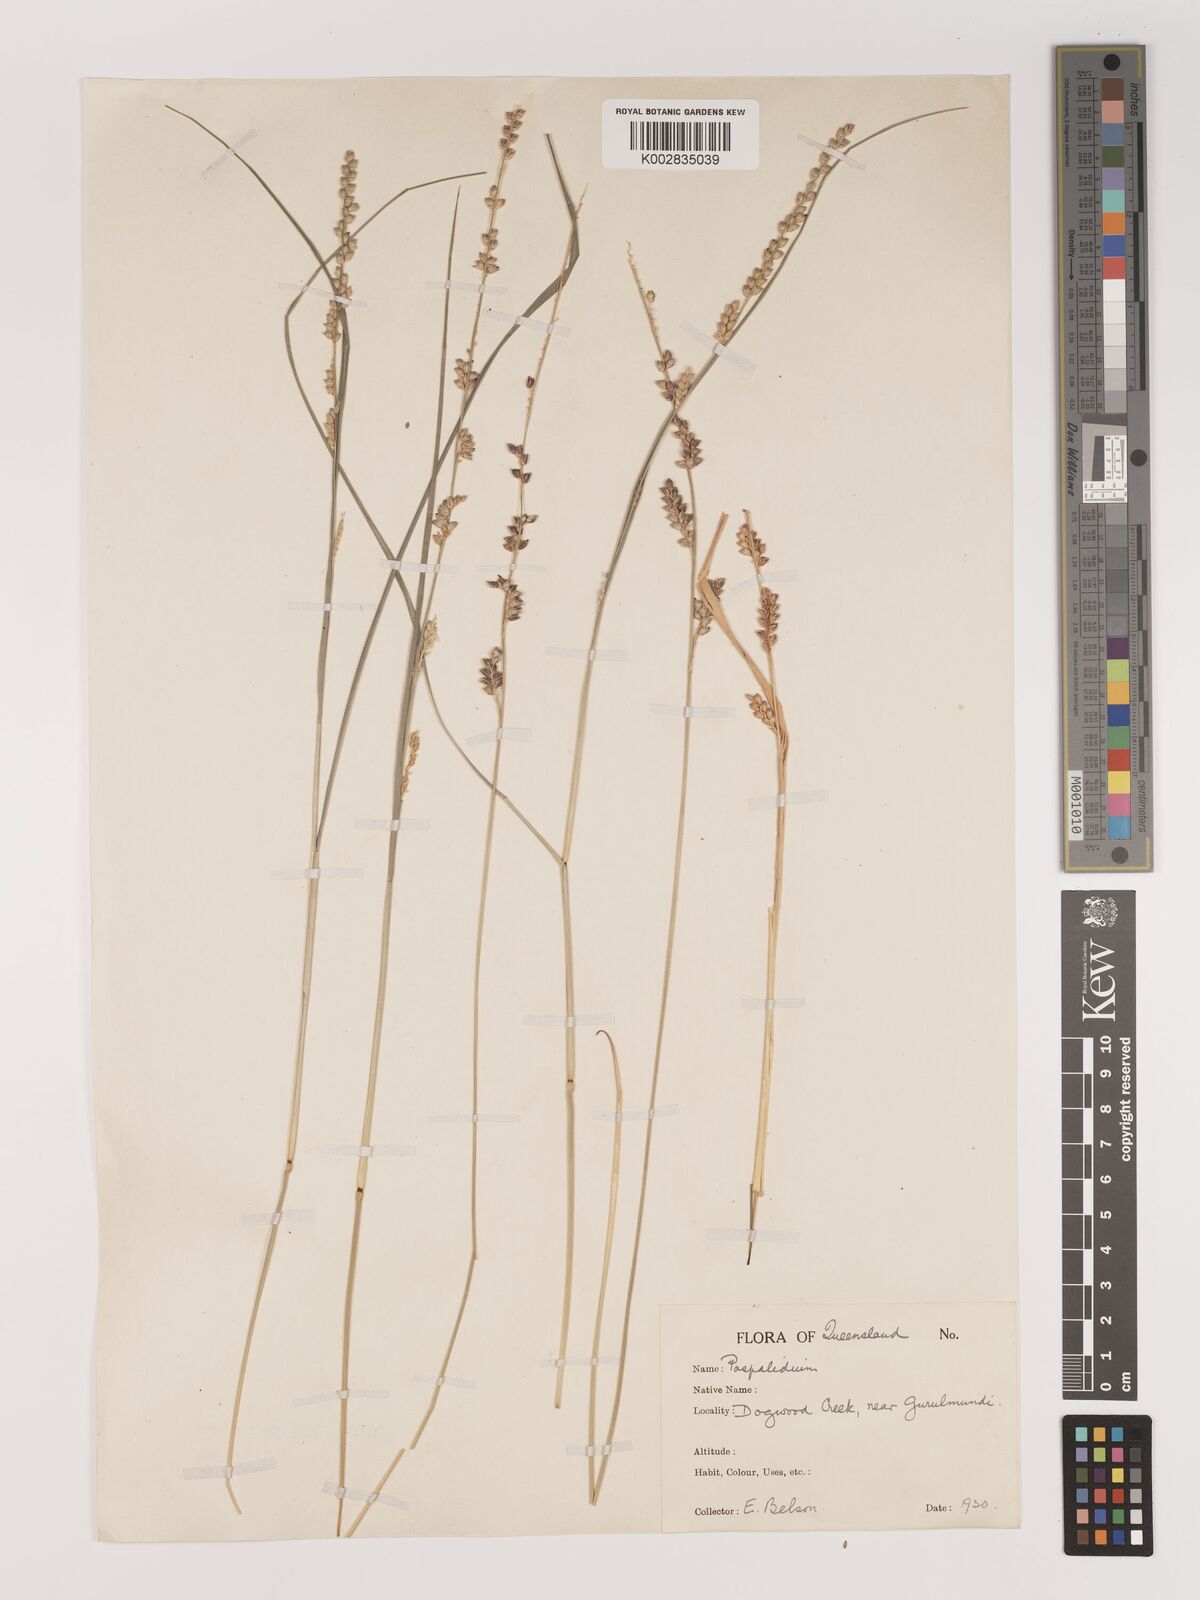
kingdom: Plantae
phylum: Tracheophyta
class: Liliopsida
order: Poales
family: Poaceae
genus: Setaria
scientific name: Setaria
